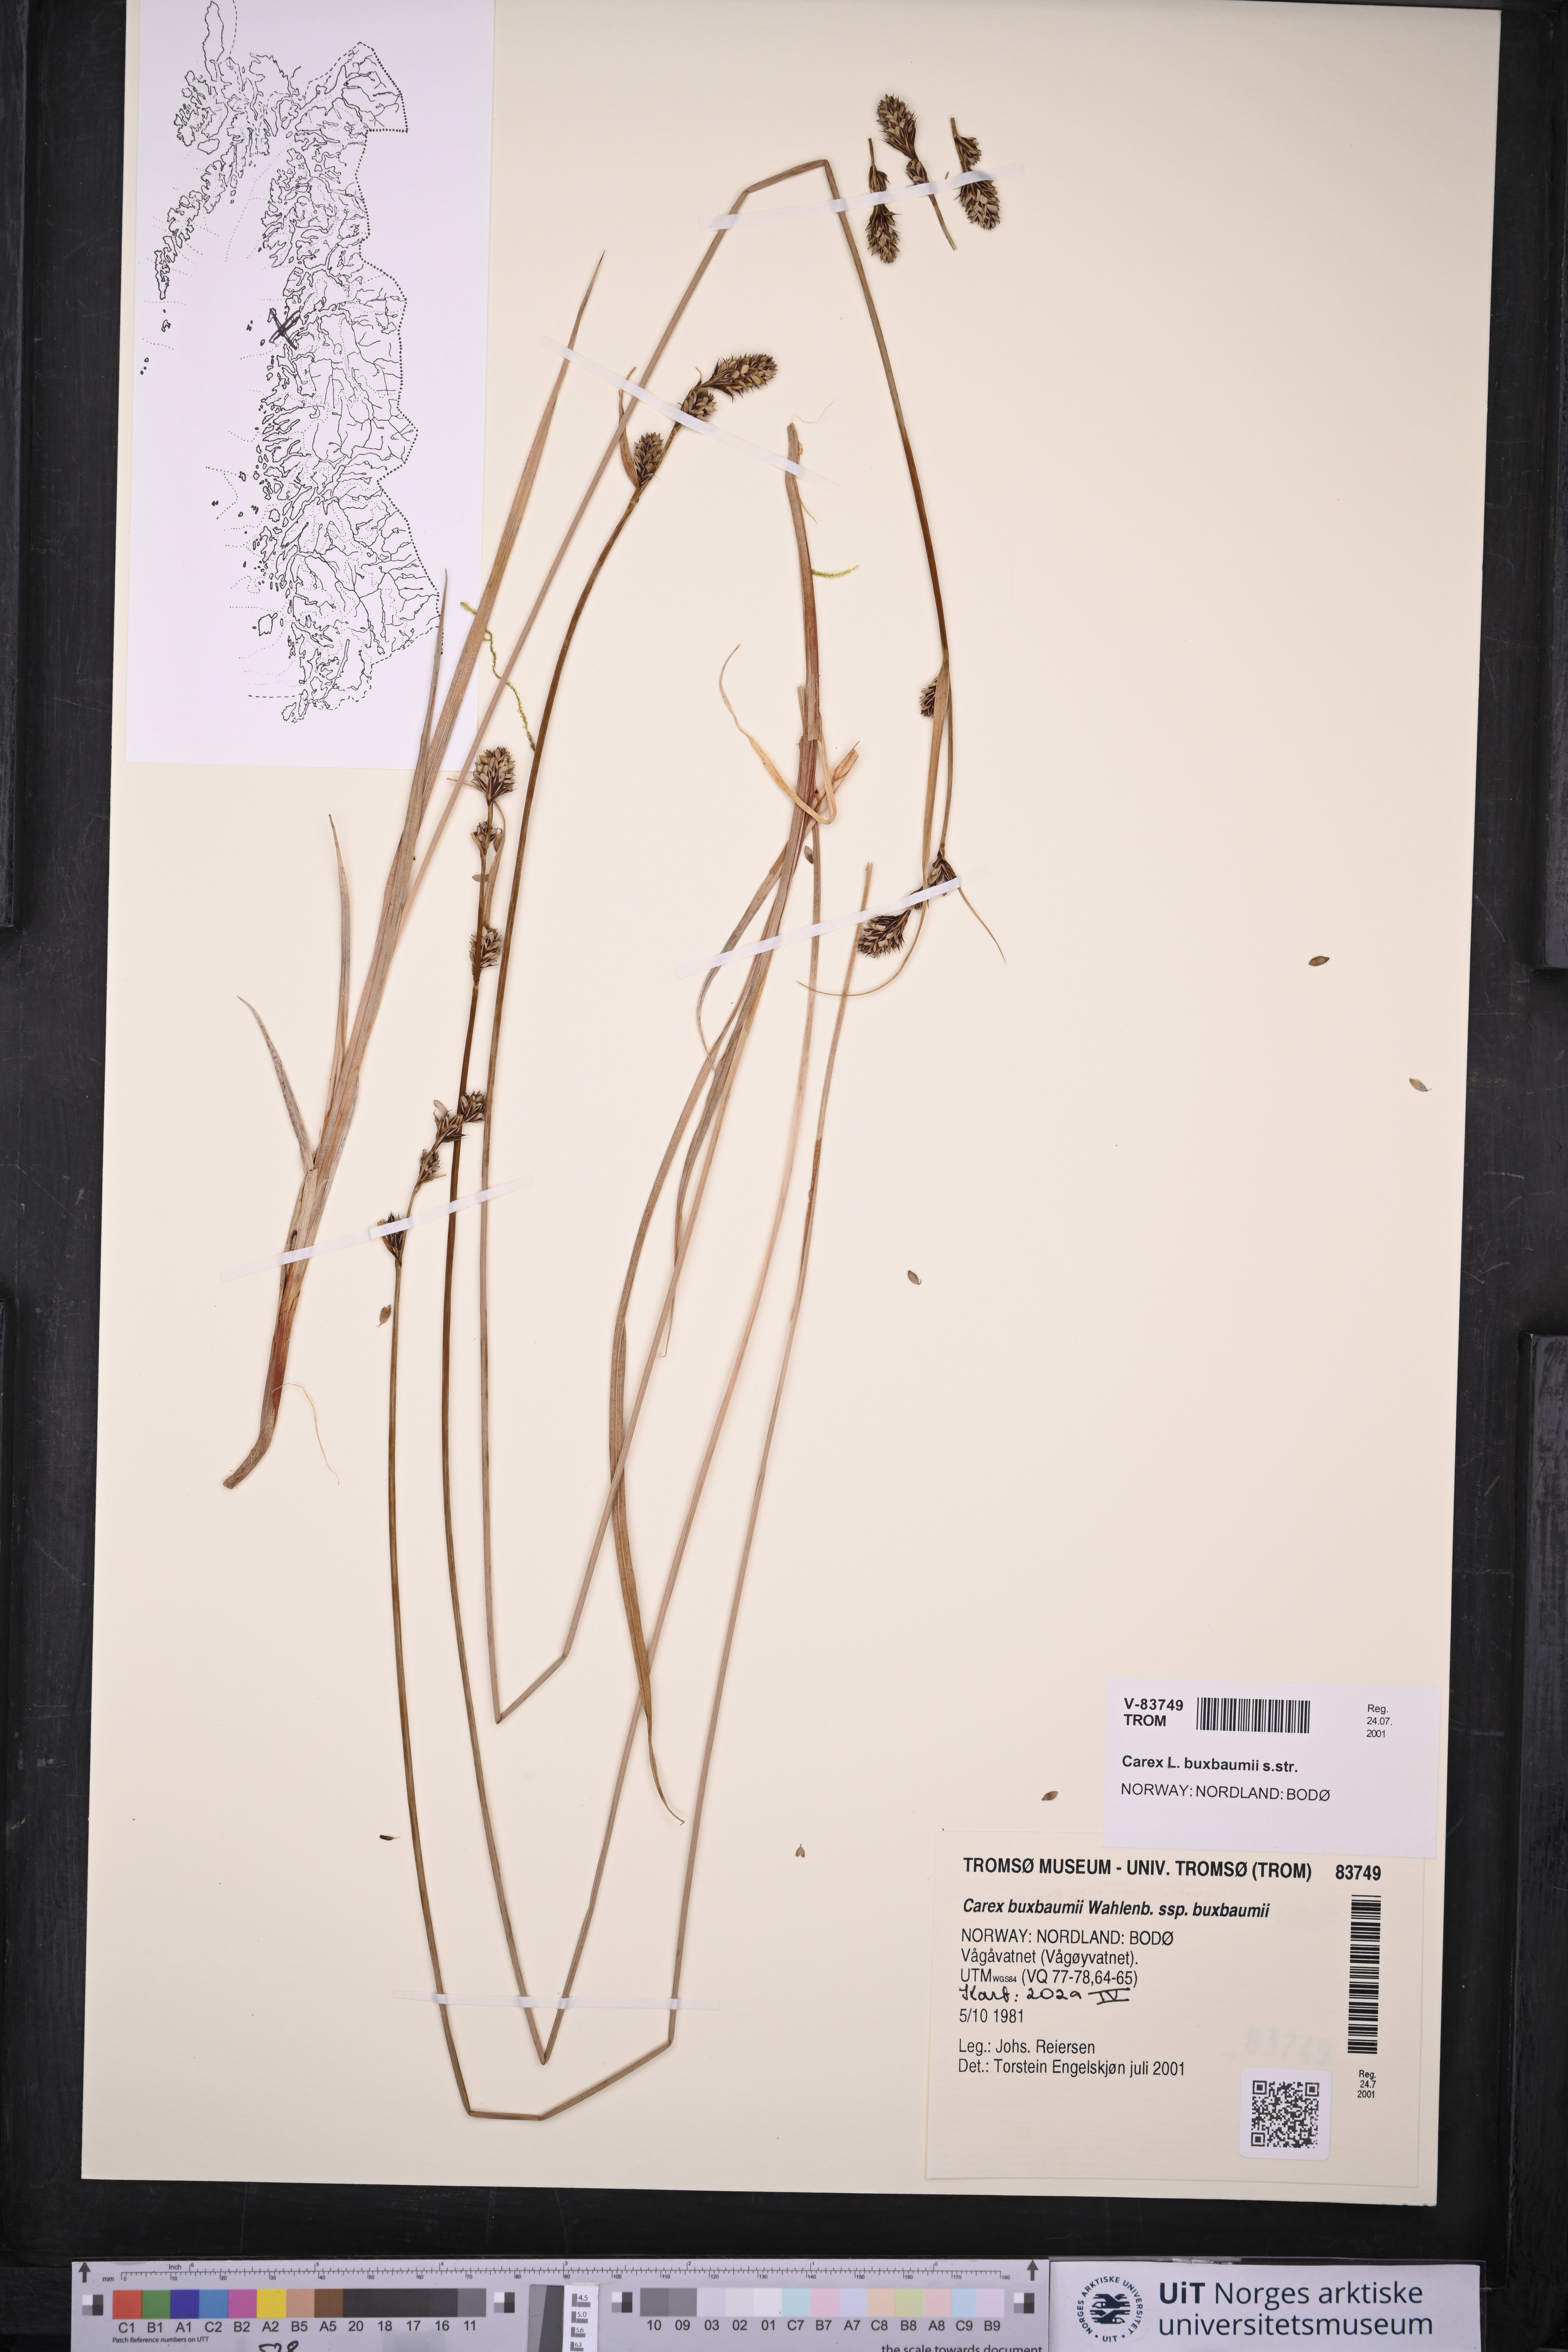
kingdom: Plantae
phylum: Tracheophyta
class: Liliopsida
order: Poales
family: Cyperaceae
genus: Carex
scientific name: Carex buxbaumii
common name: Club sedge
